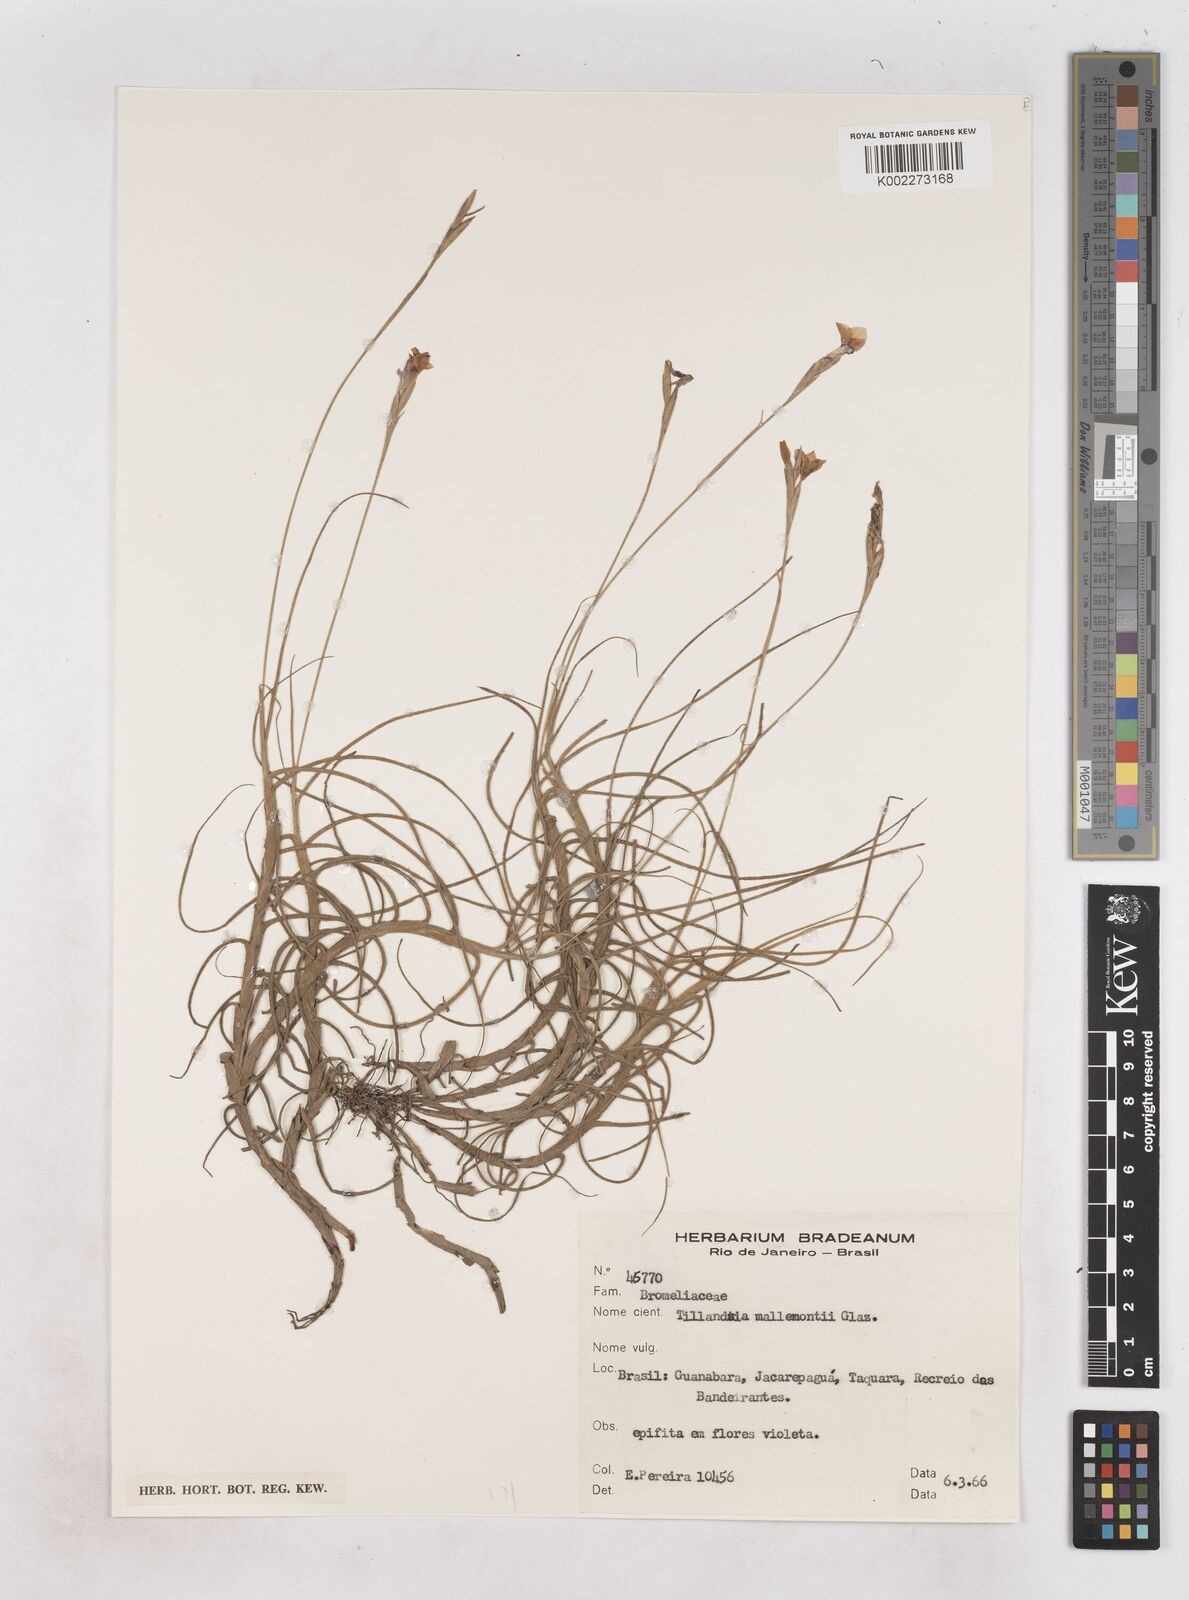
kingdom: Plantae
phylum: Tracheophyta
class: Liliopsida
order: Poales
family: Bromeliaceae
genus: Tillandsia
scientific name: Tillandsia mallemontii
